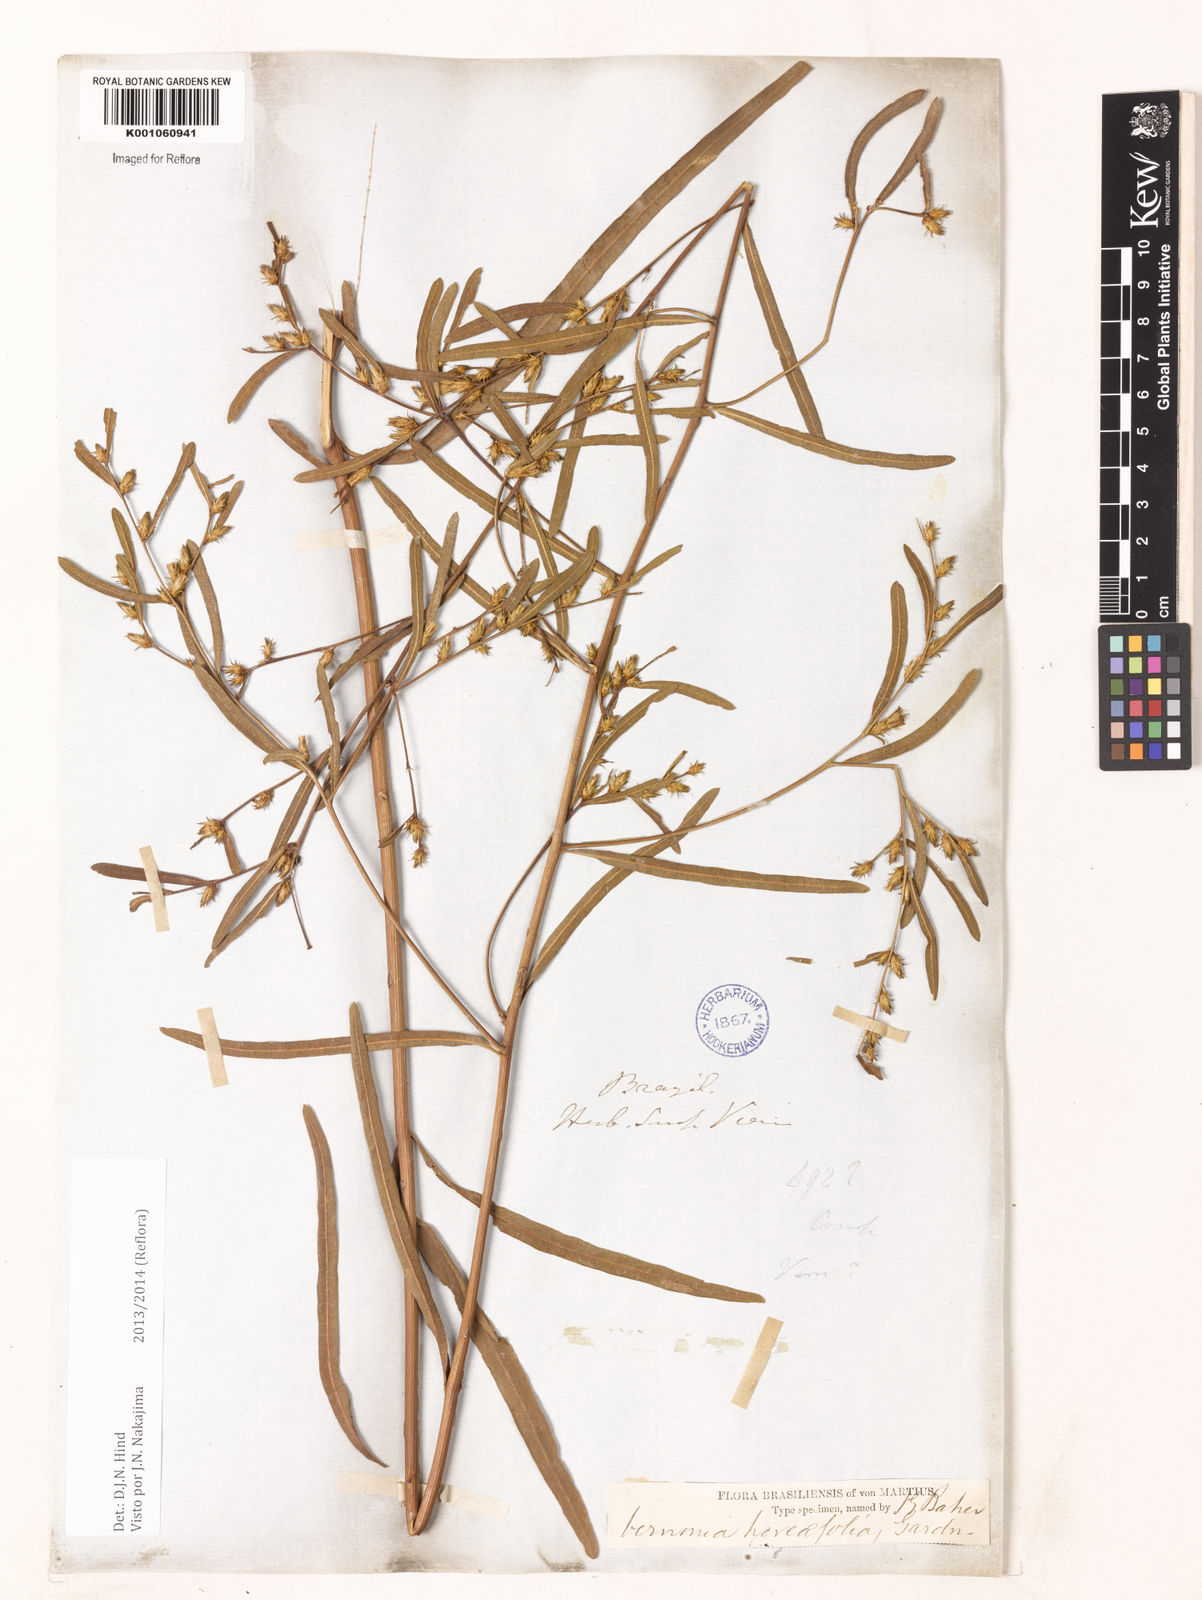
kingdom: Plantae
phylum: Tracheophyta
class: Magnoliopsida
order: Asterales
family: Asteraceae
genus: Lessingianthus
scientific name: Lessingianthus hoveifolius
